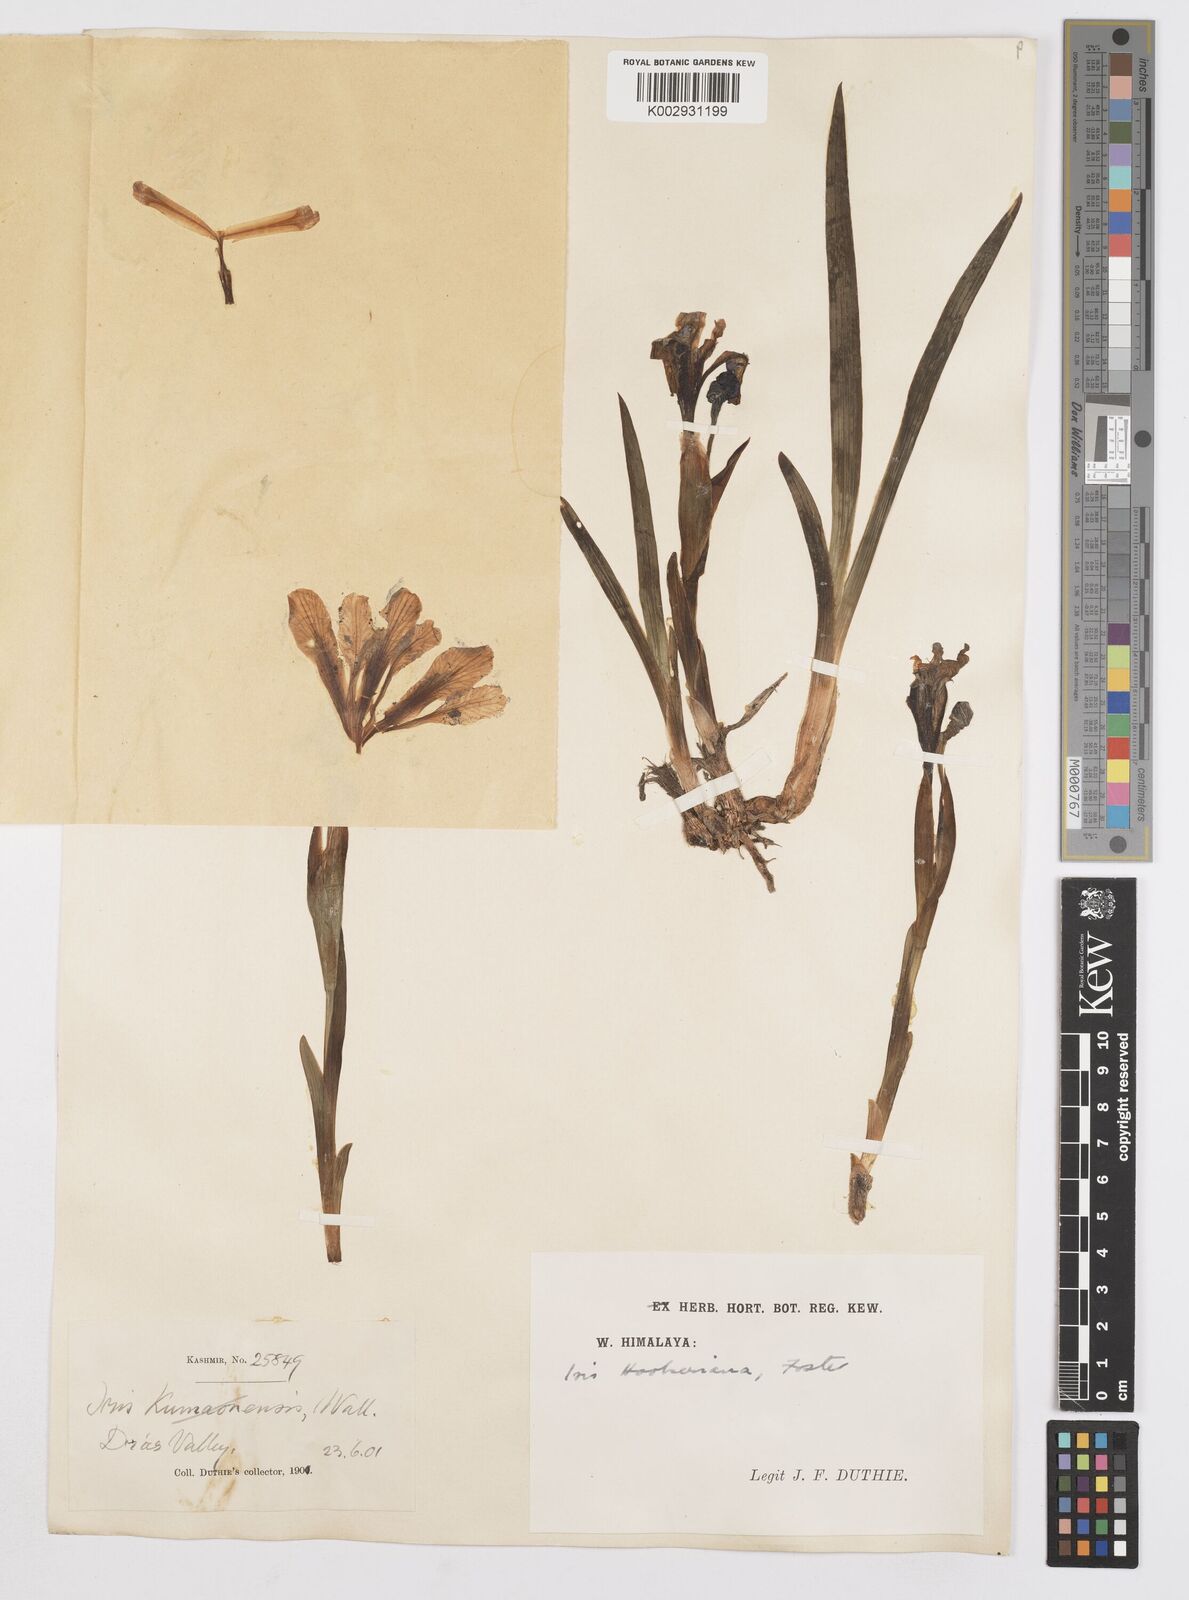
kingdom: Plantae
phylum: Tracheophyta
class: Liliopsida
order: Asparagales
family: Iridaceae
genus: Iris
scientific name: Iris hookeriana
